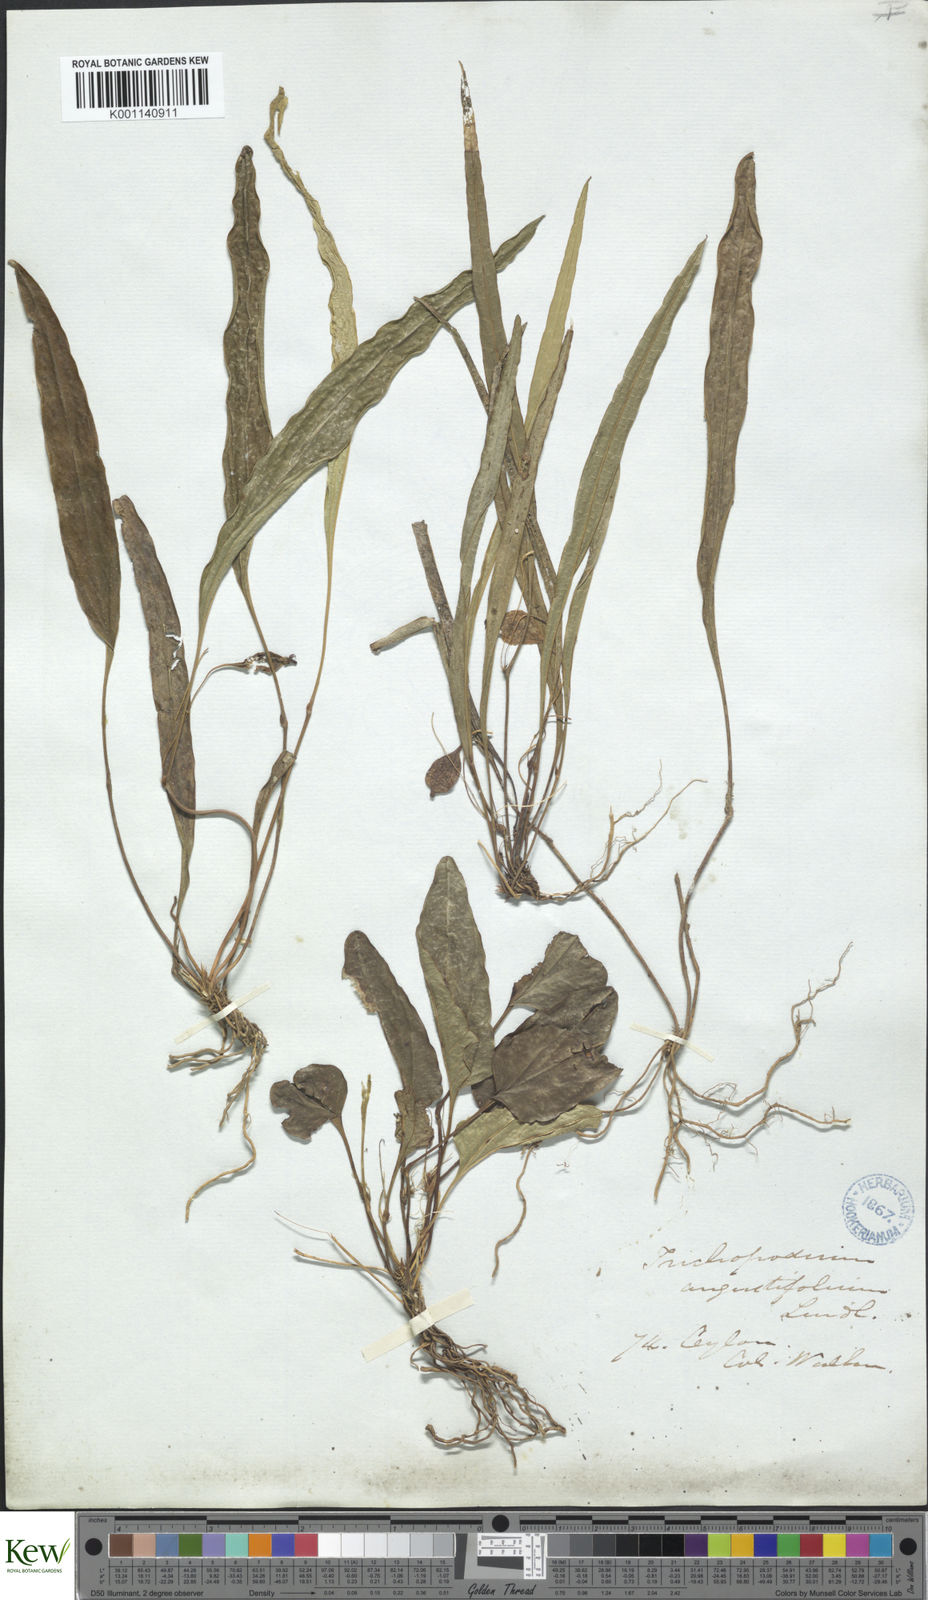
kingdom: Plantae
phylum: Tracheophyta
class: Liliopsida
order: Dioscoreales
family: Dioscoreaceae
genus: Trichopus
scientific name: Trichopus zeylanicus
